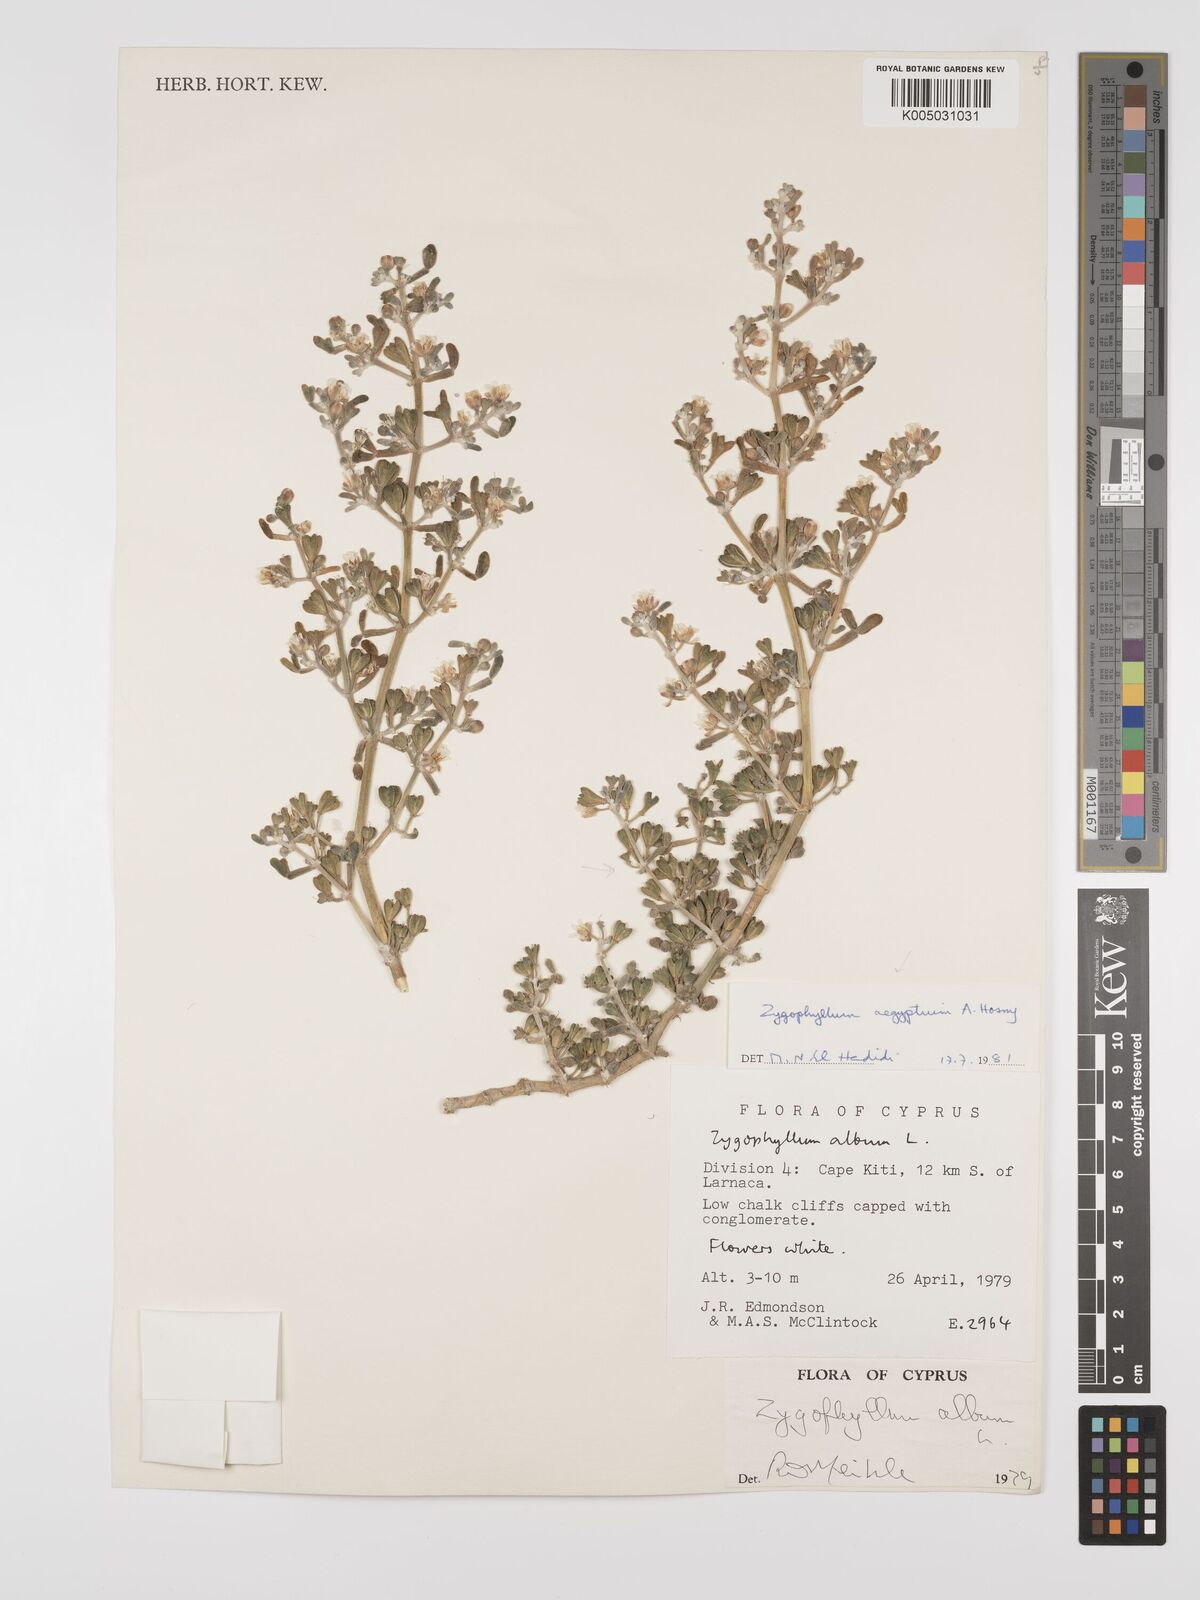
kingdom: Plantae
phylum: Tracheophyta
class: Magnoliopsida
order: Zygophyllales
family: Zygophyllaceae
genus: Zygophyllum
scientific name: Zygophyllum
